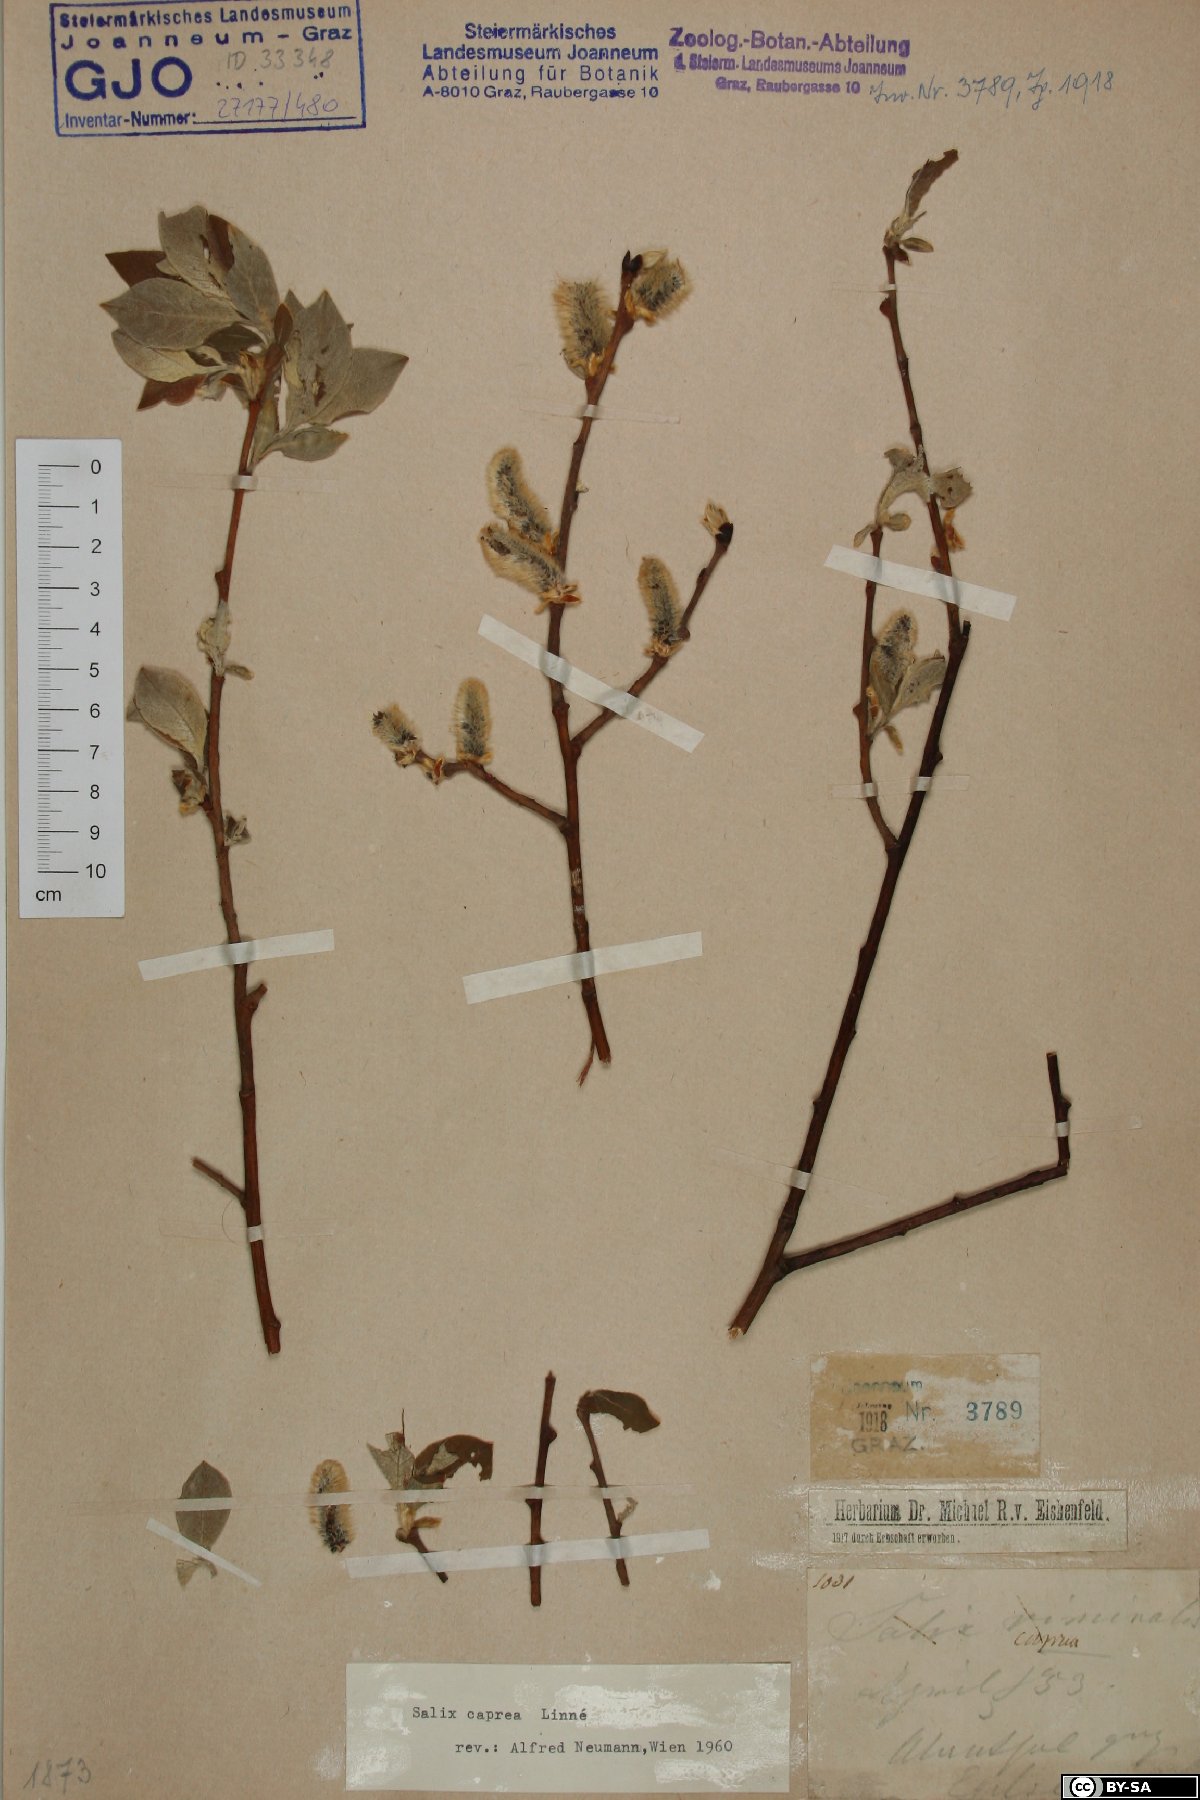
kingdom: Plantae
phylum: Tracheophyta
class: Magnoliopsida
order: Malpighiales
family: Salicaceae
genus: Salix
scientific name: Salix caprea
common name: Goat willow
